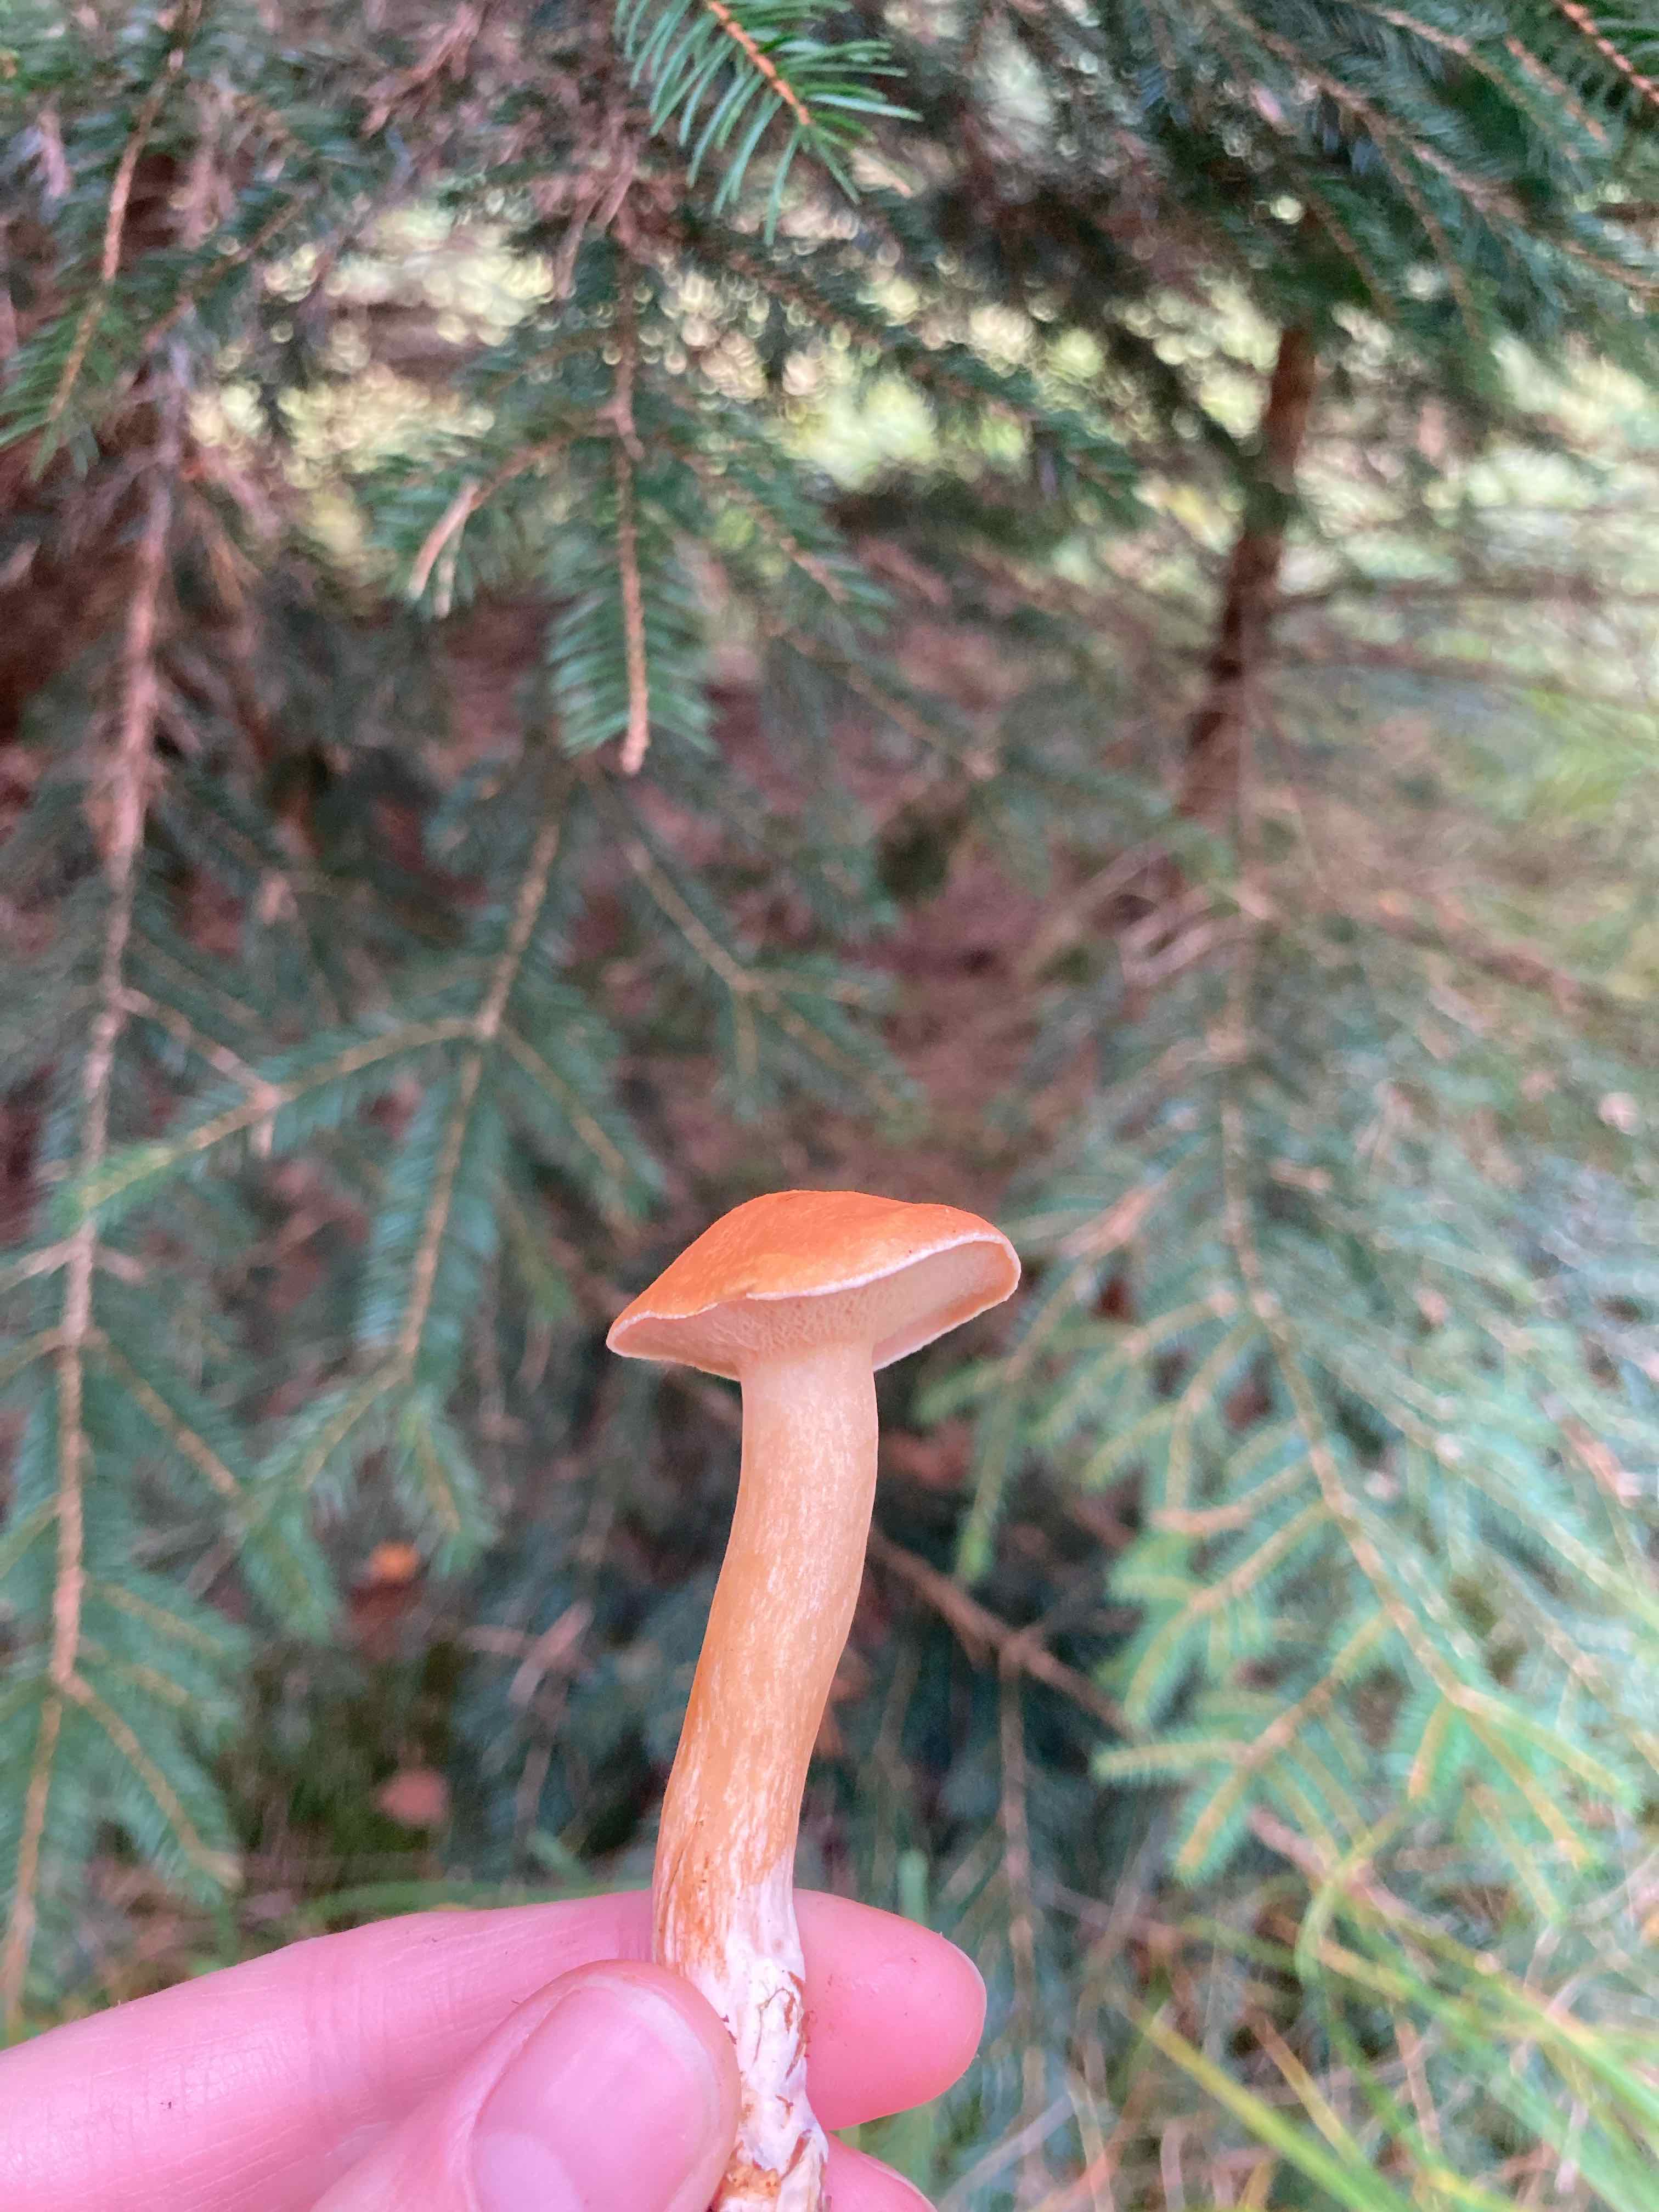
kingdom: Fungi
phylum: Basidiomycota
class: Agaricomycetes
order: Boletales
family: Suillaceae
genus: Suillus
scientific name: Suillus bovinus
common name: grovporet slimrørhat
